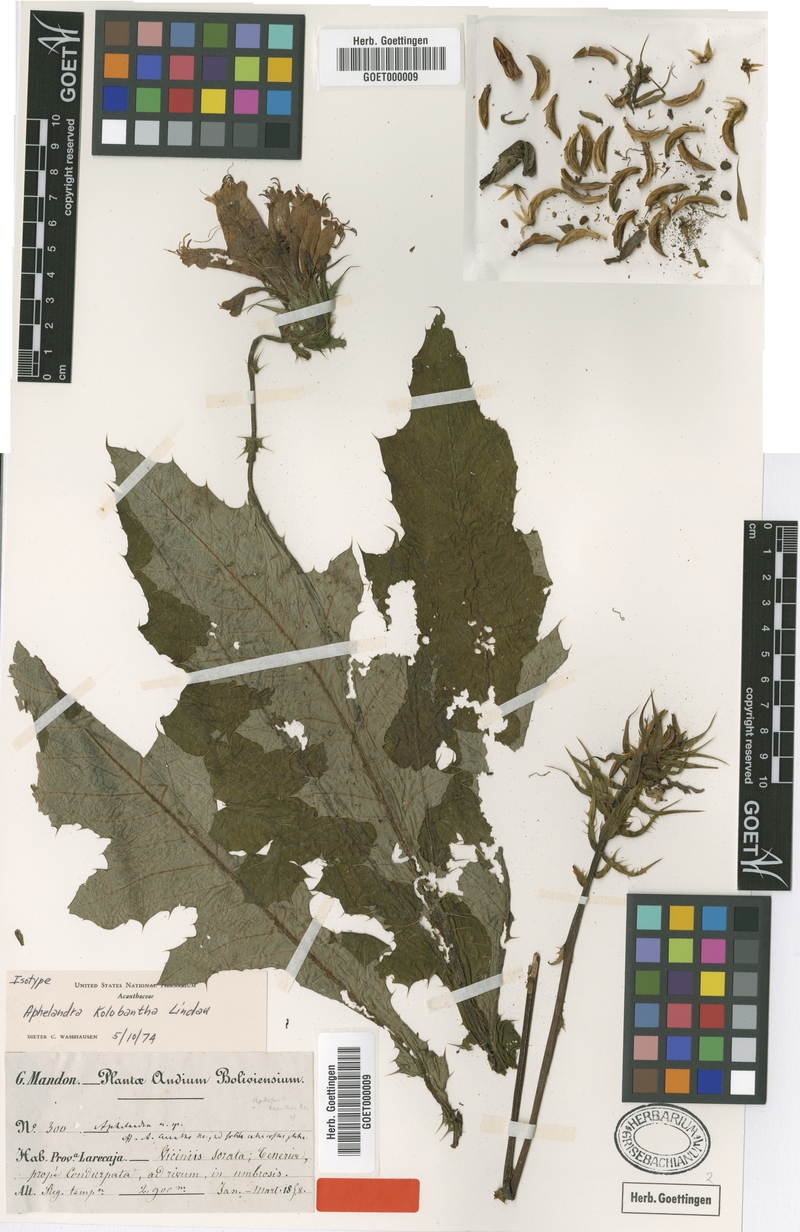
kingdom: Plantae
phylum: Tracheophyta
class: Magnoliopsida
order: Lamiales
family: Acanthaceae
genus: Aphelandra
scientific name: Aphelandra kolobantha
